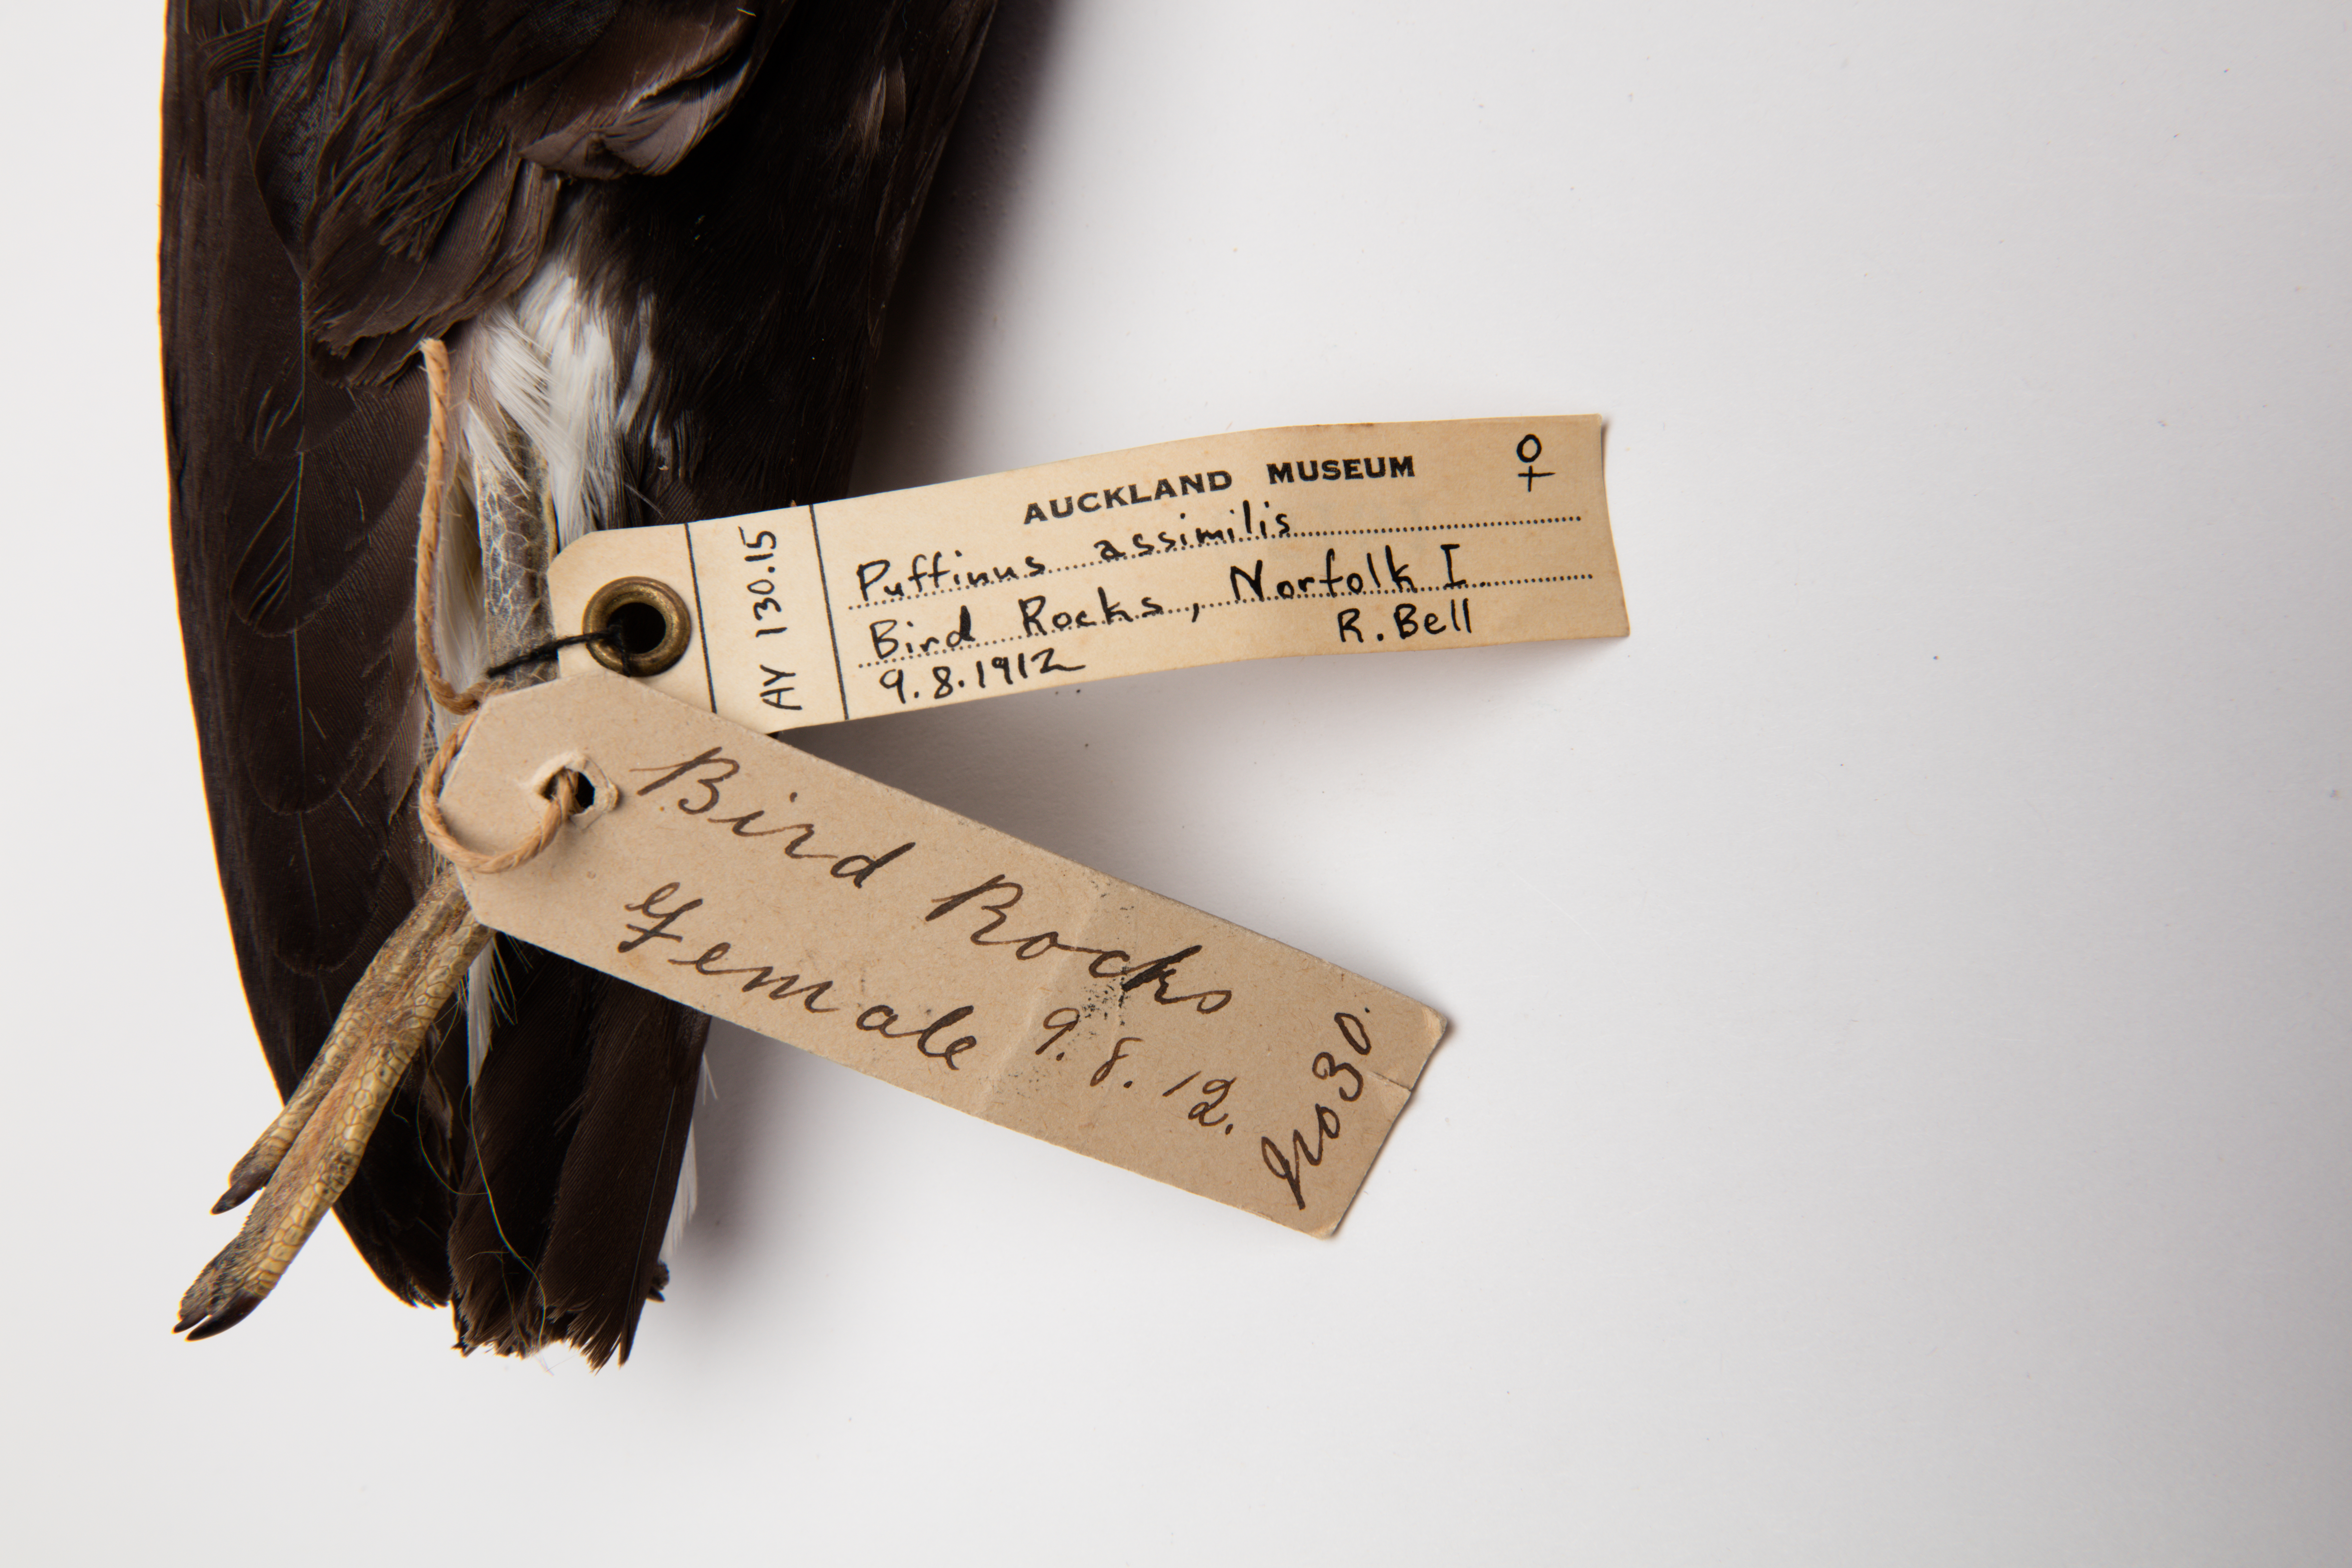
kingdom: Animalia
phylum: Chordata
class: Aves
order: Procellariiformes
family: Procellariidae
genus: Puffinus
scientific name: Puffinus assimilis
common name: Little shearwater
